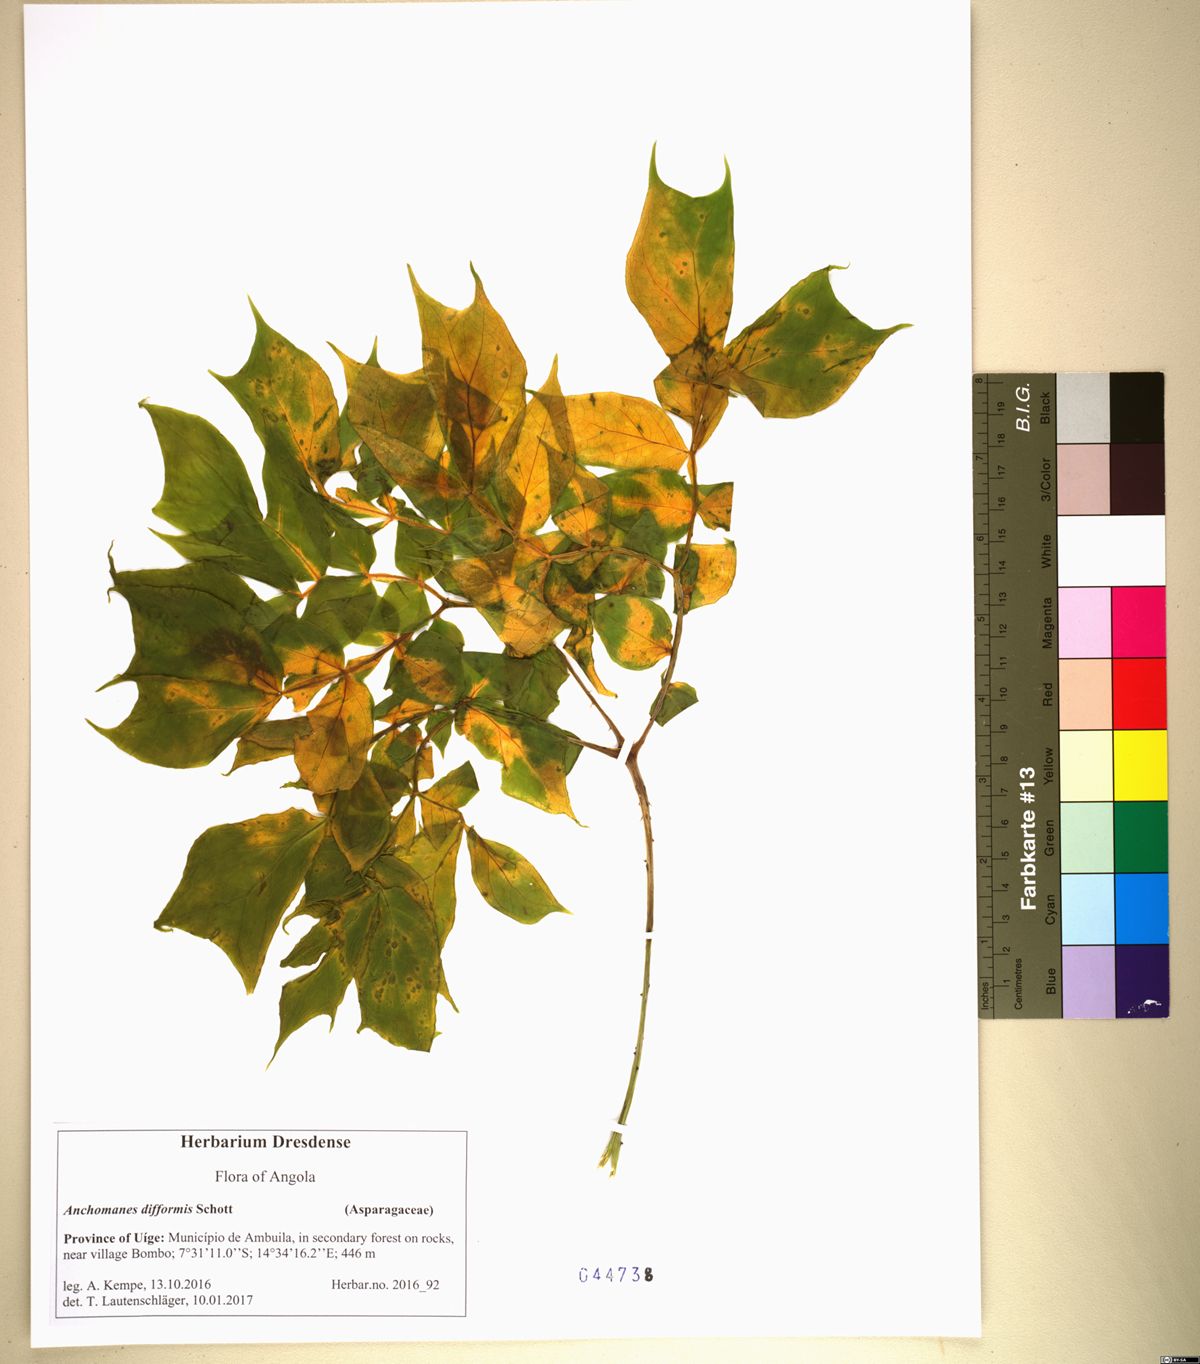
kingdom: Plantae
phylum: Tracheophyta
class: Liliopsida
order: Alismatales
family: Araceae
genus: Anchomanes
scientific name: Anchomanes difformis
